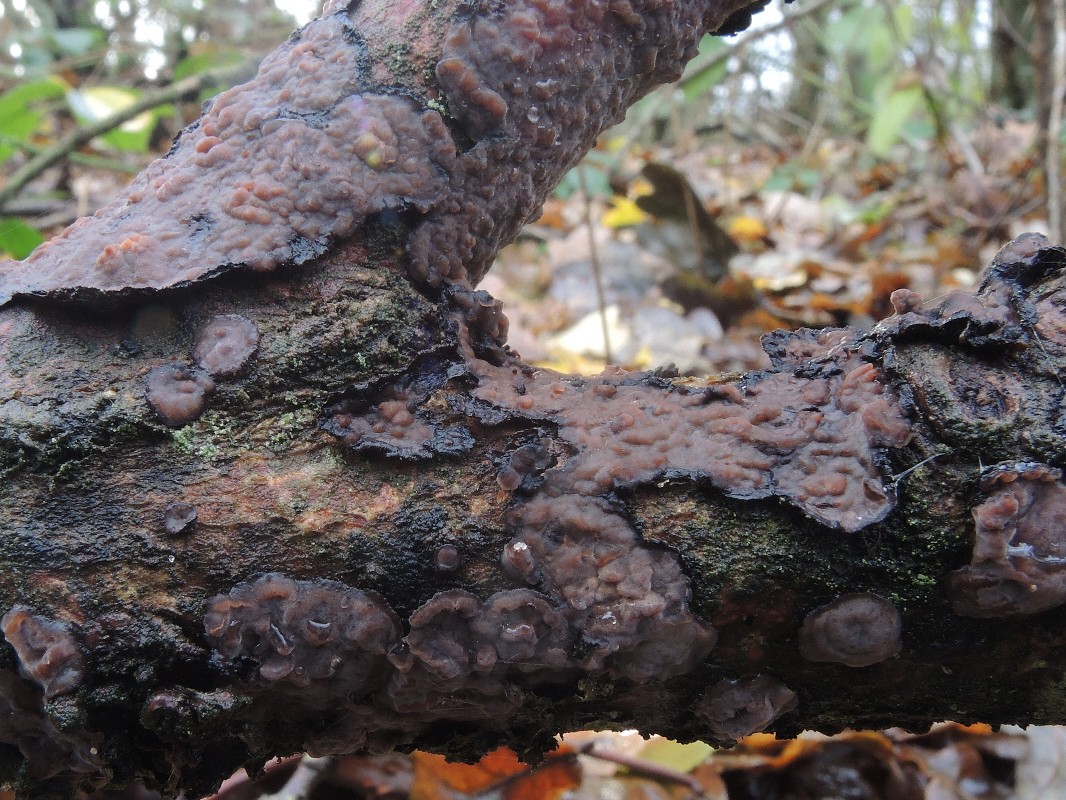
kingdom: Fungi
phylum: Basidiomycota
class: Agaricomycetes
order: Russulales
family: Peniophoraceae
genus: Peniophora
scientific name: Peniophora quercina
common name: ege-voksskind
